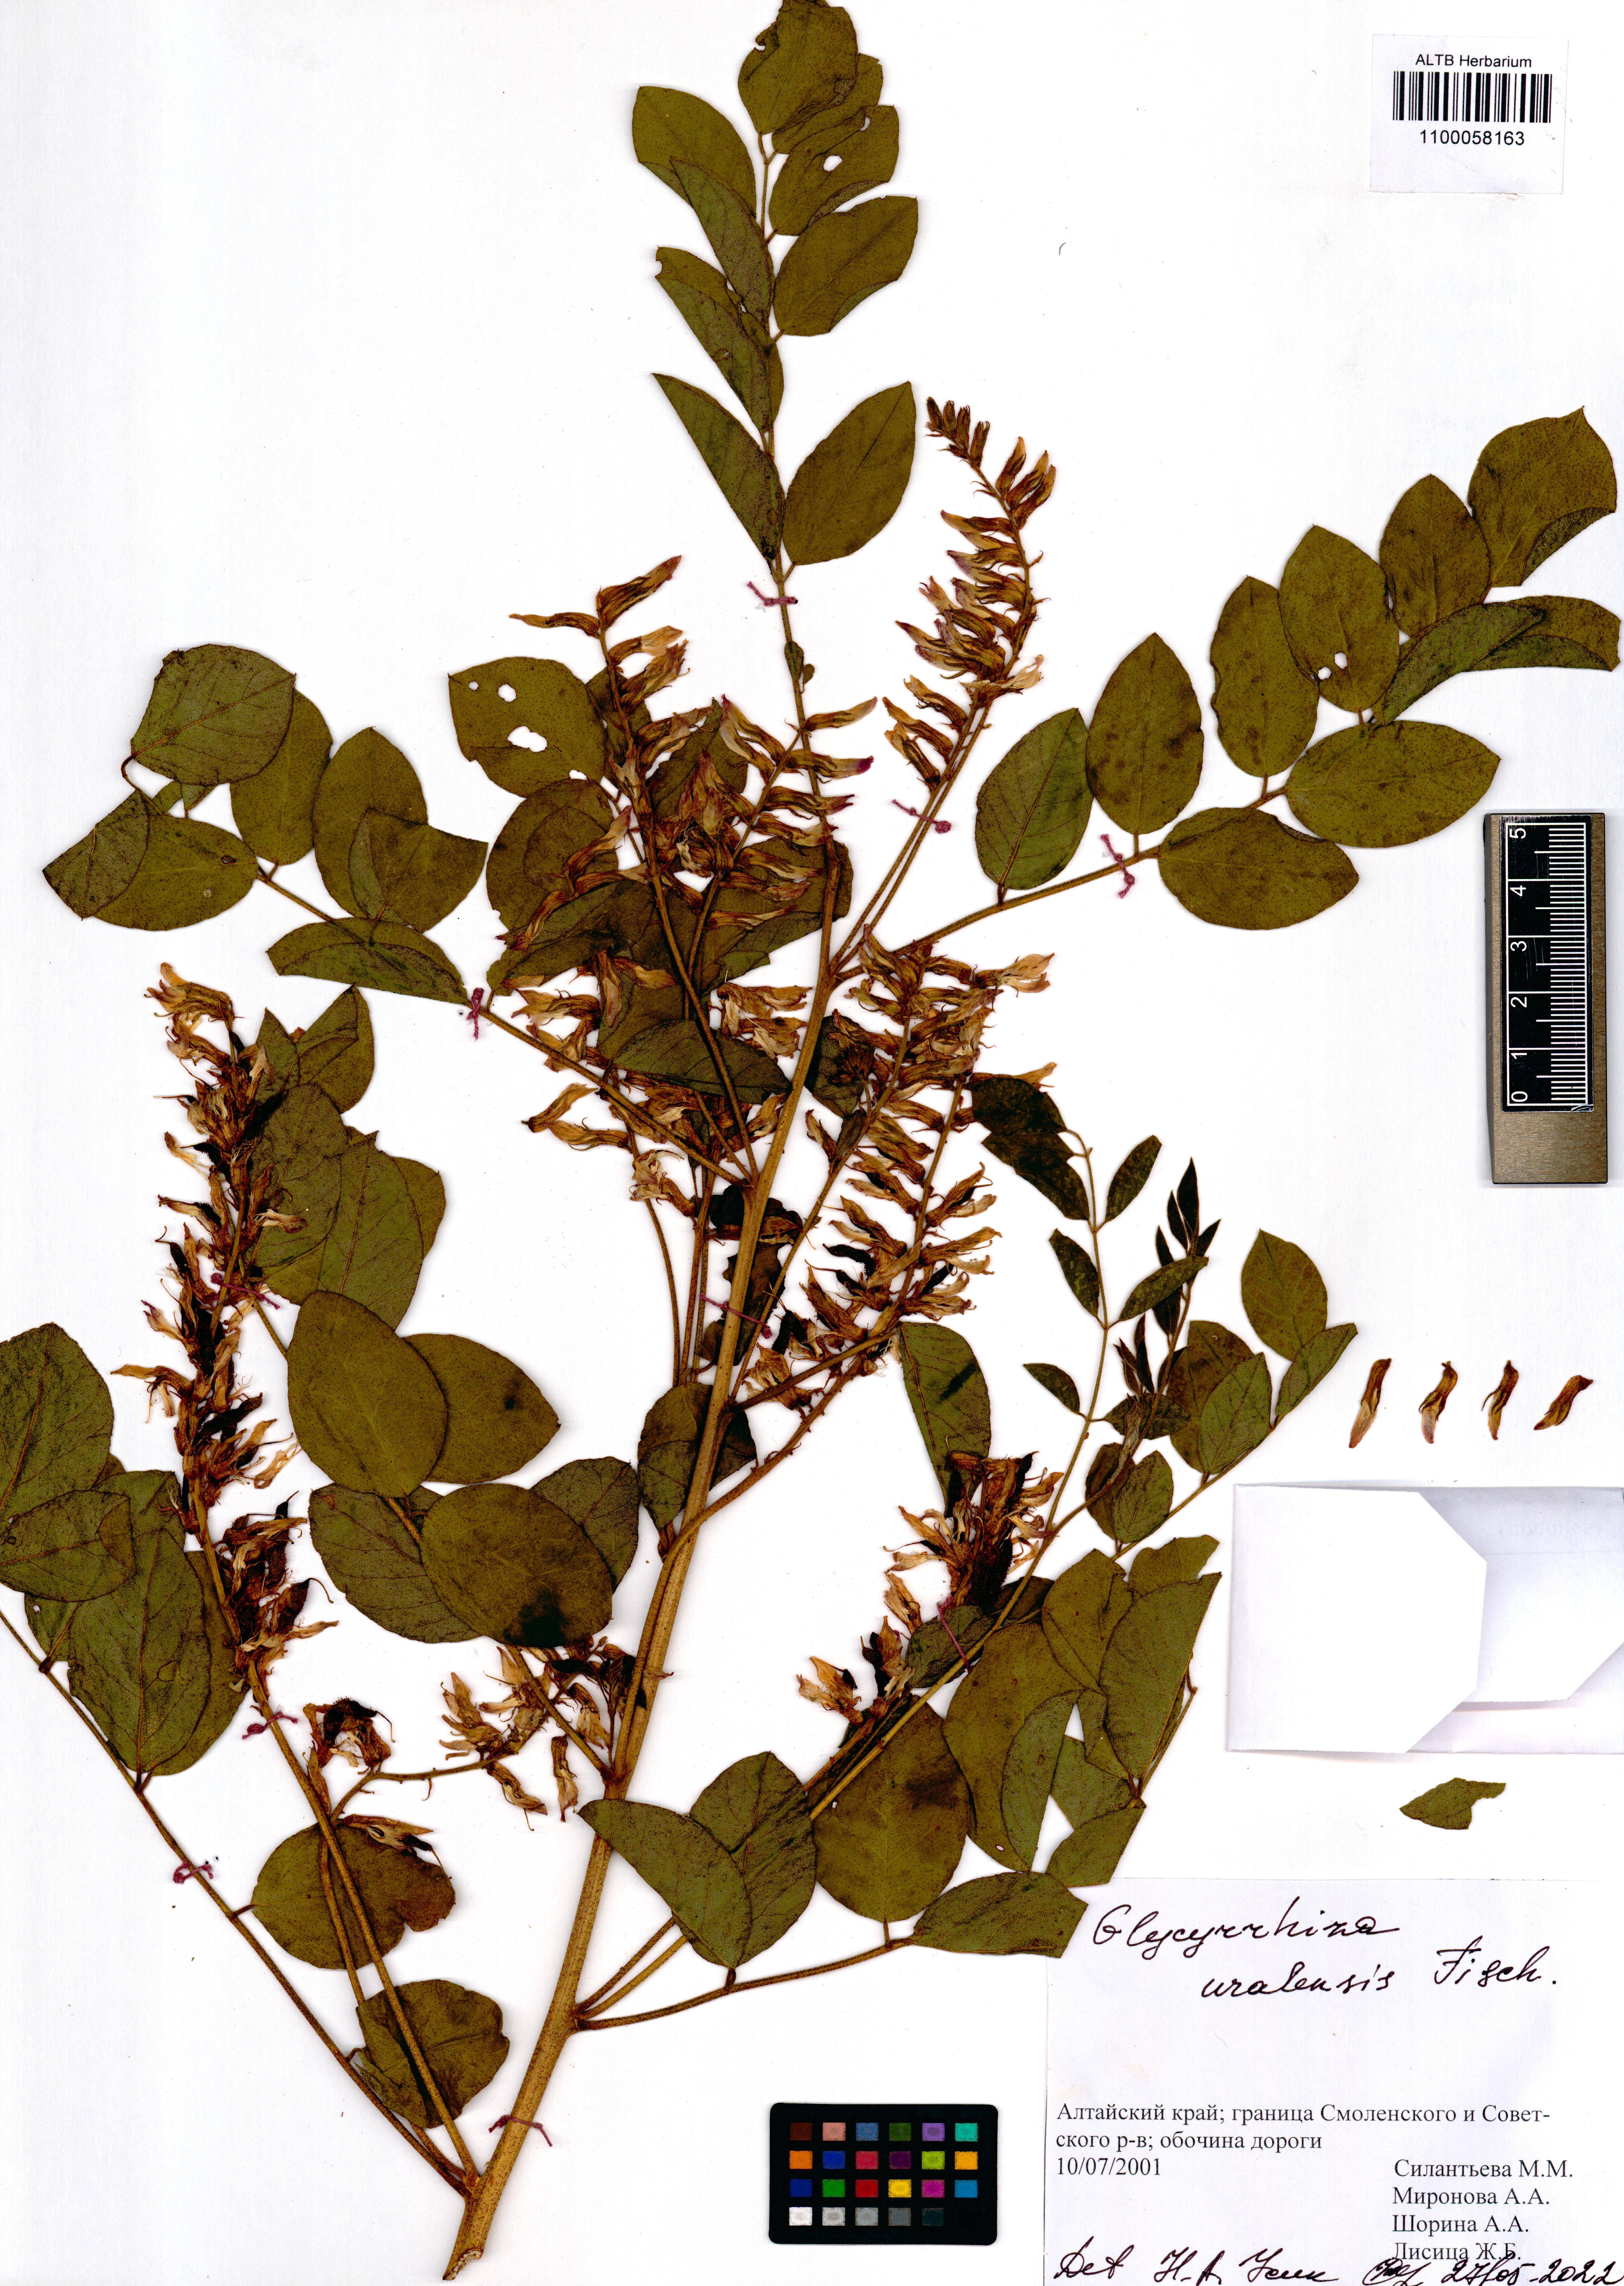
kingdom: Plantae
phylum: Tracheophyta
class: Magnoliopsida
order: Fabales
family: Fabaceae
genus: Glycyrrhiza
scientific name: Glycyrrhiza uralensis
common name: Chinese licorice
